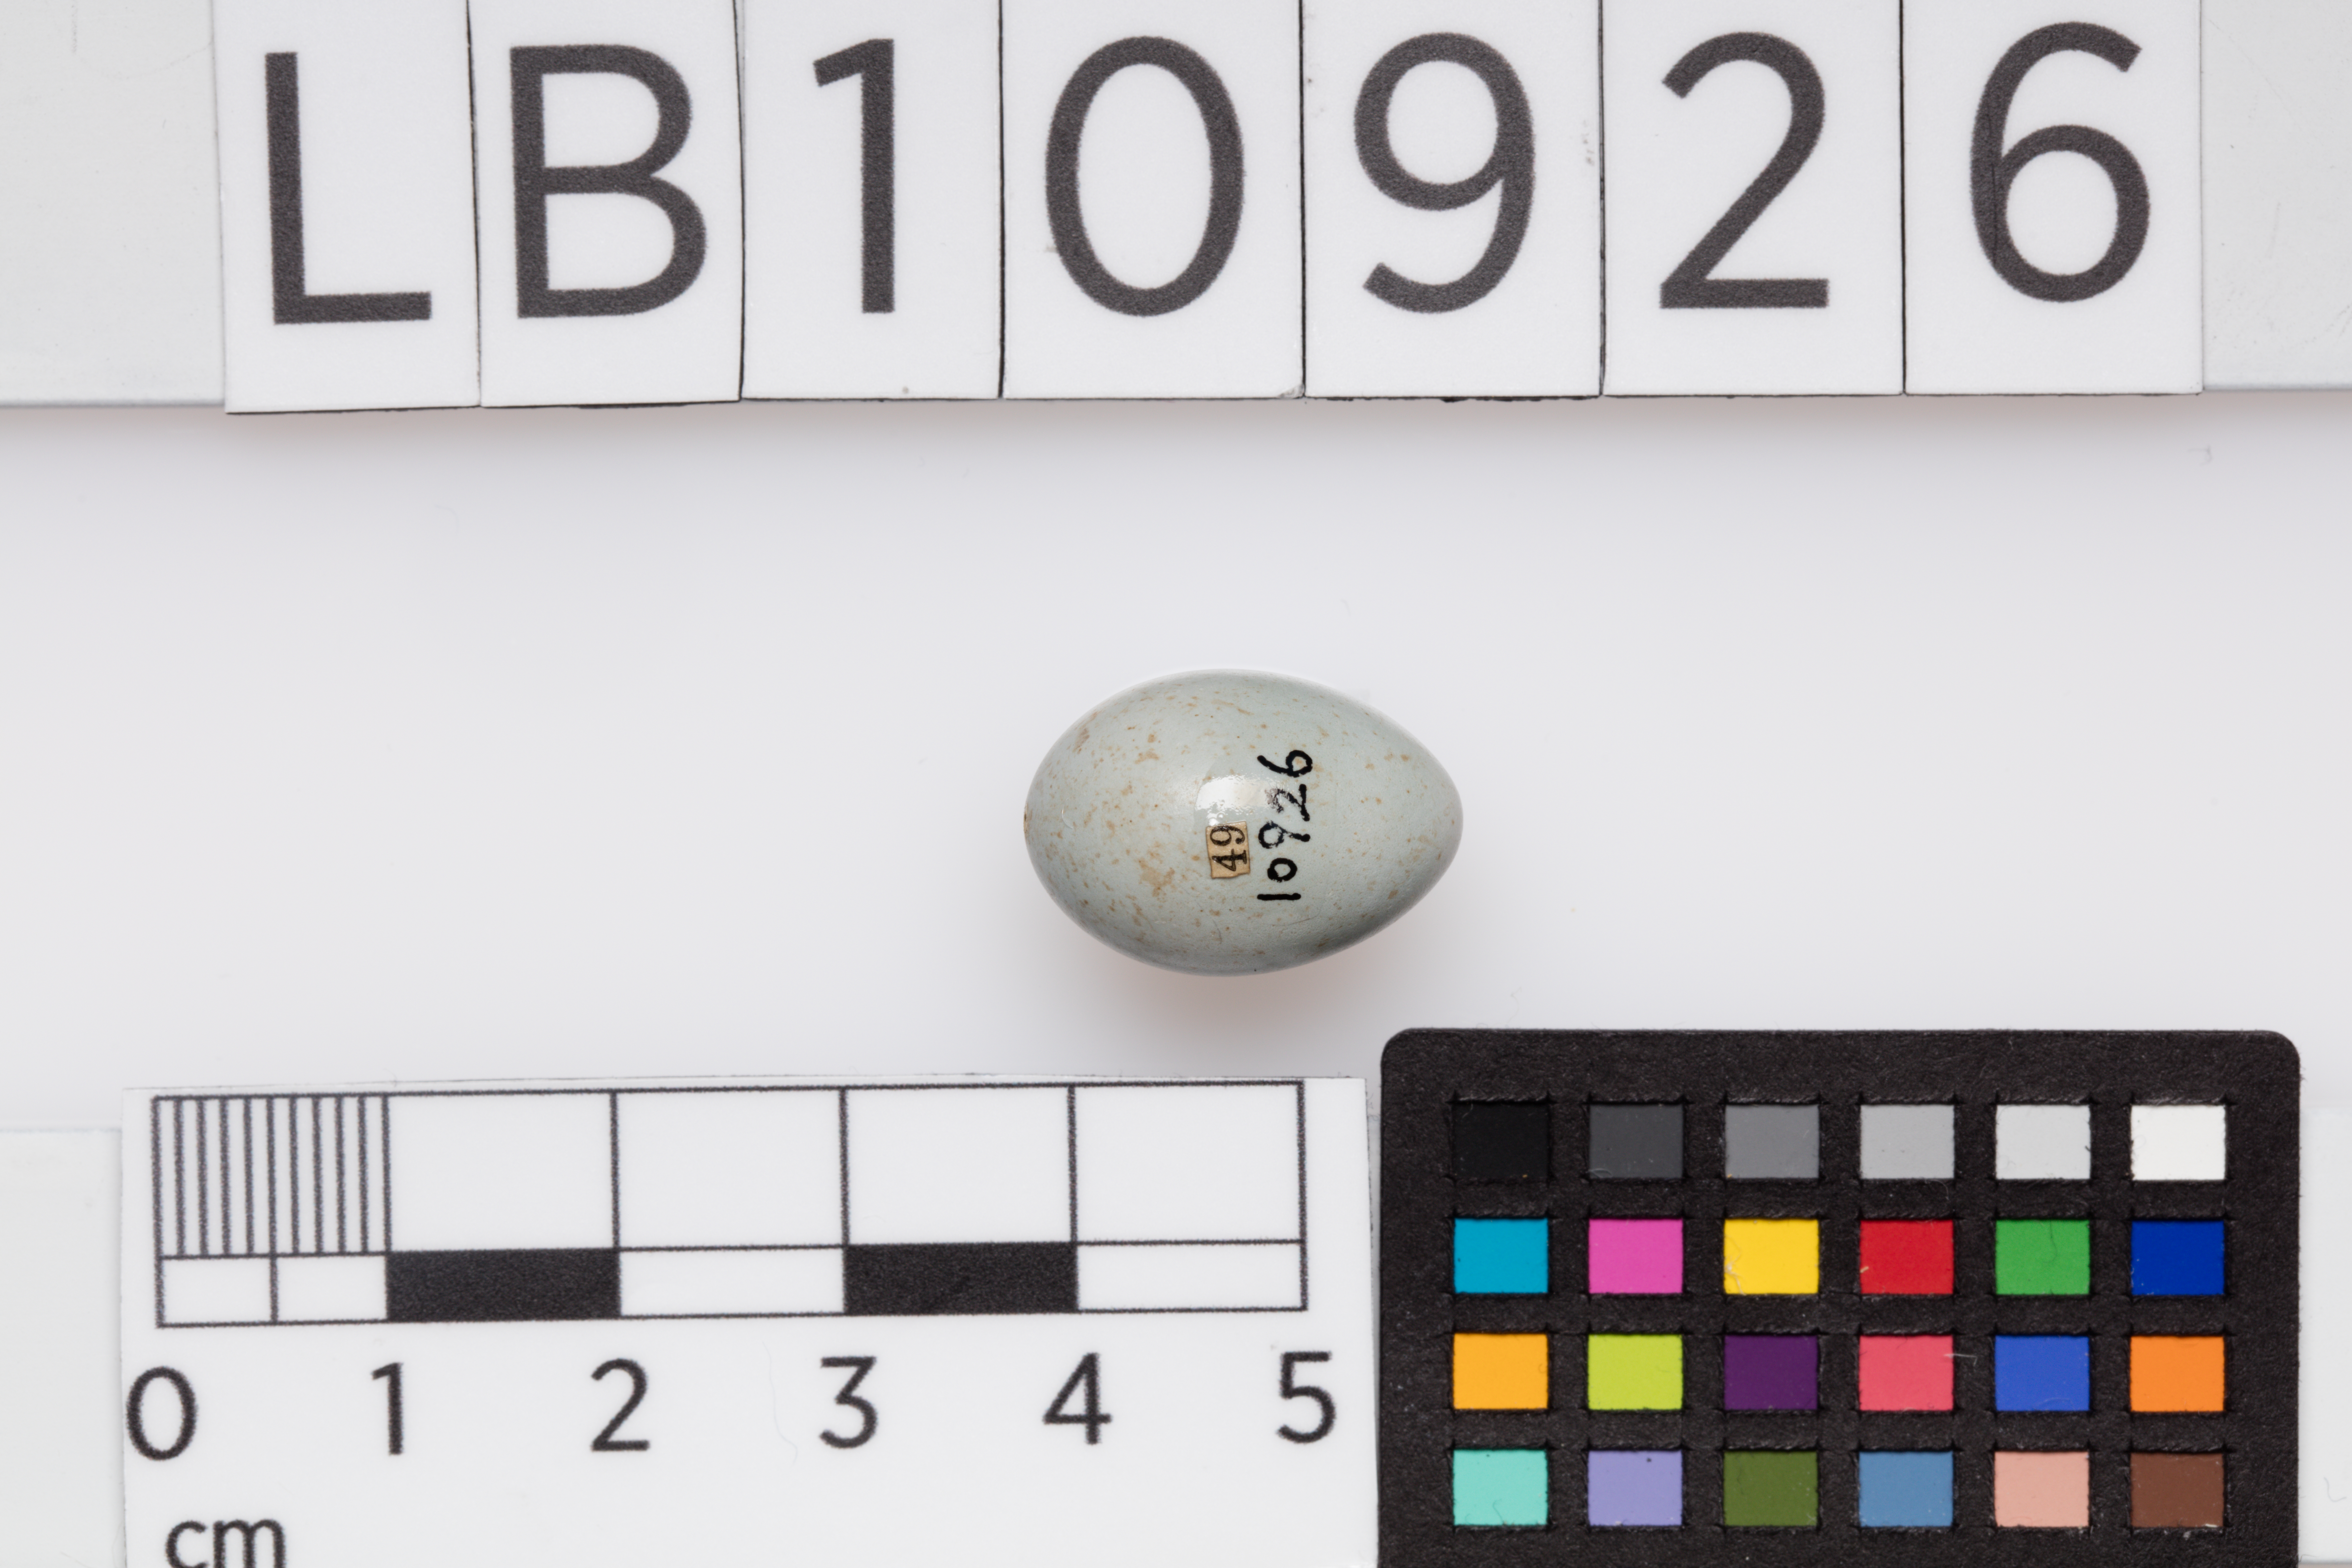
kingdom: Animalia
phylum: Chordata
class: Aves
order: Passeriformes
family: Muscicapidae
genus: Saxicola
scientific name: Saxicola rubetra
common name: Whinchat
